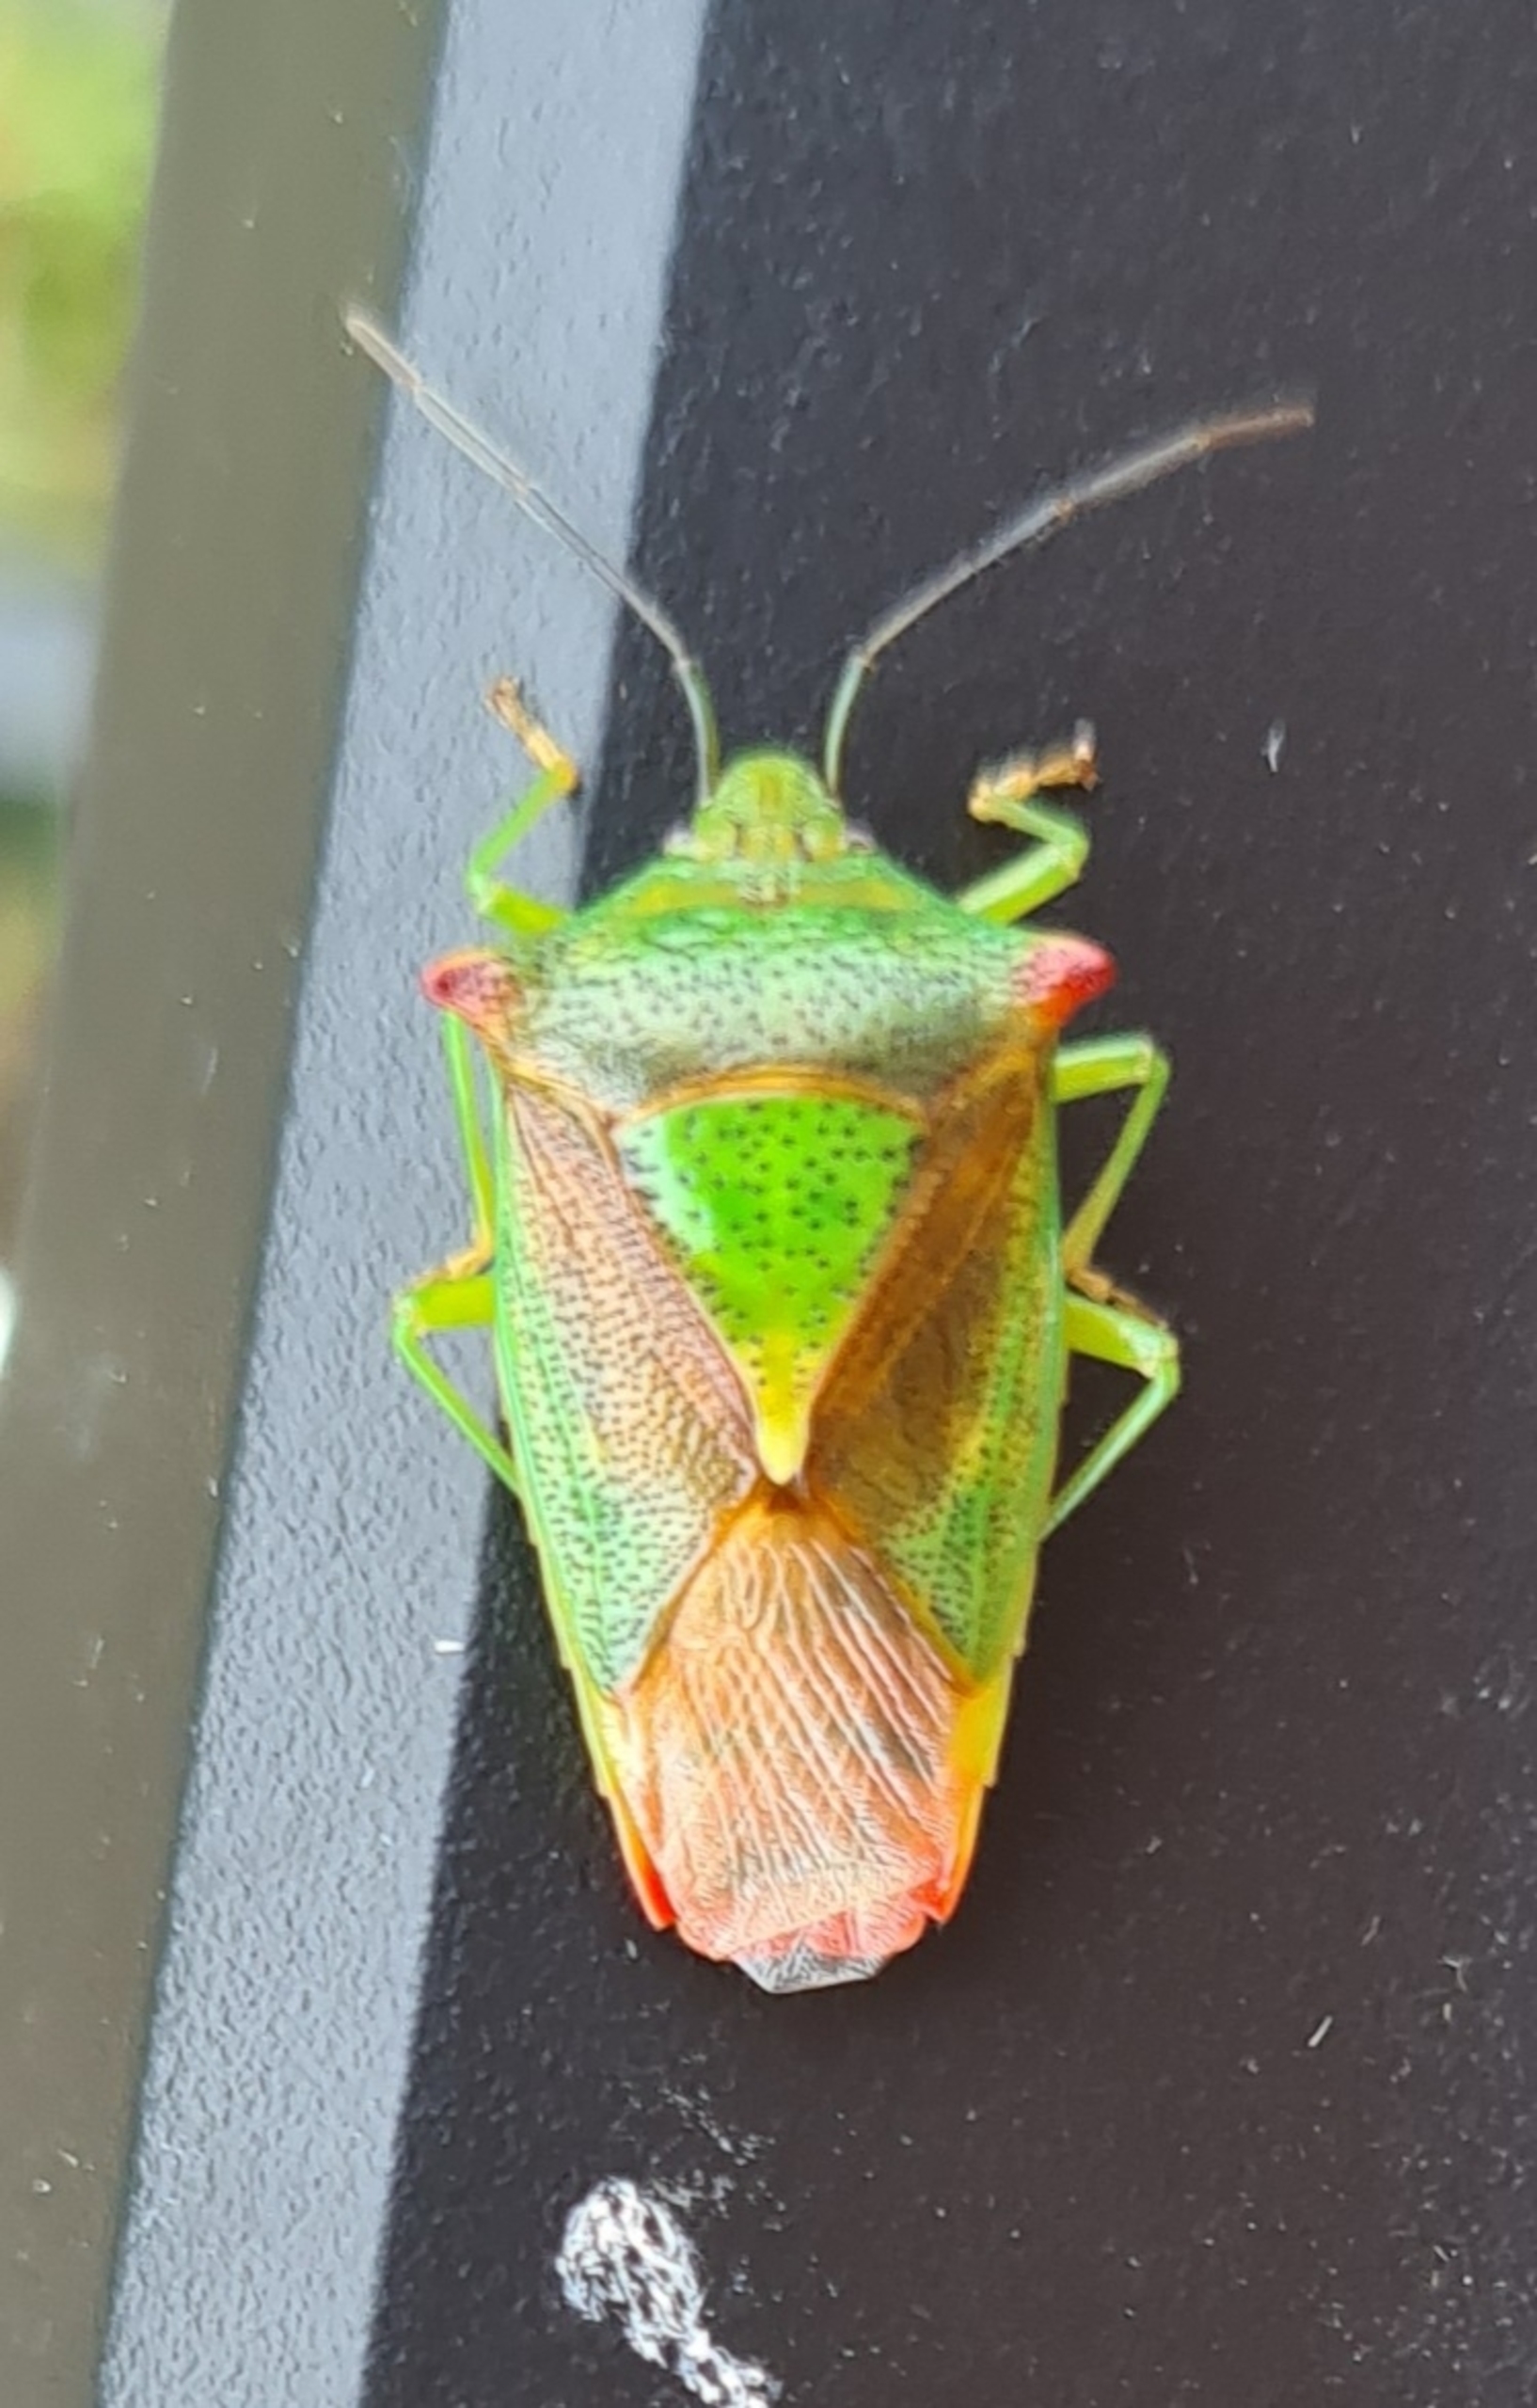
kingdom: Animalia
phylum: Arthropoda
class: Insecta
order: Hemiptera
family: Acanthosomatidae
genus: Acanthosoma
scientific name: Acanthosoma haemorrhoidale
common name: Stor løvtæge
